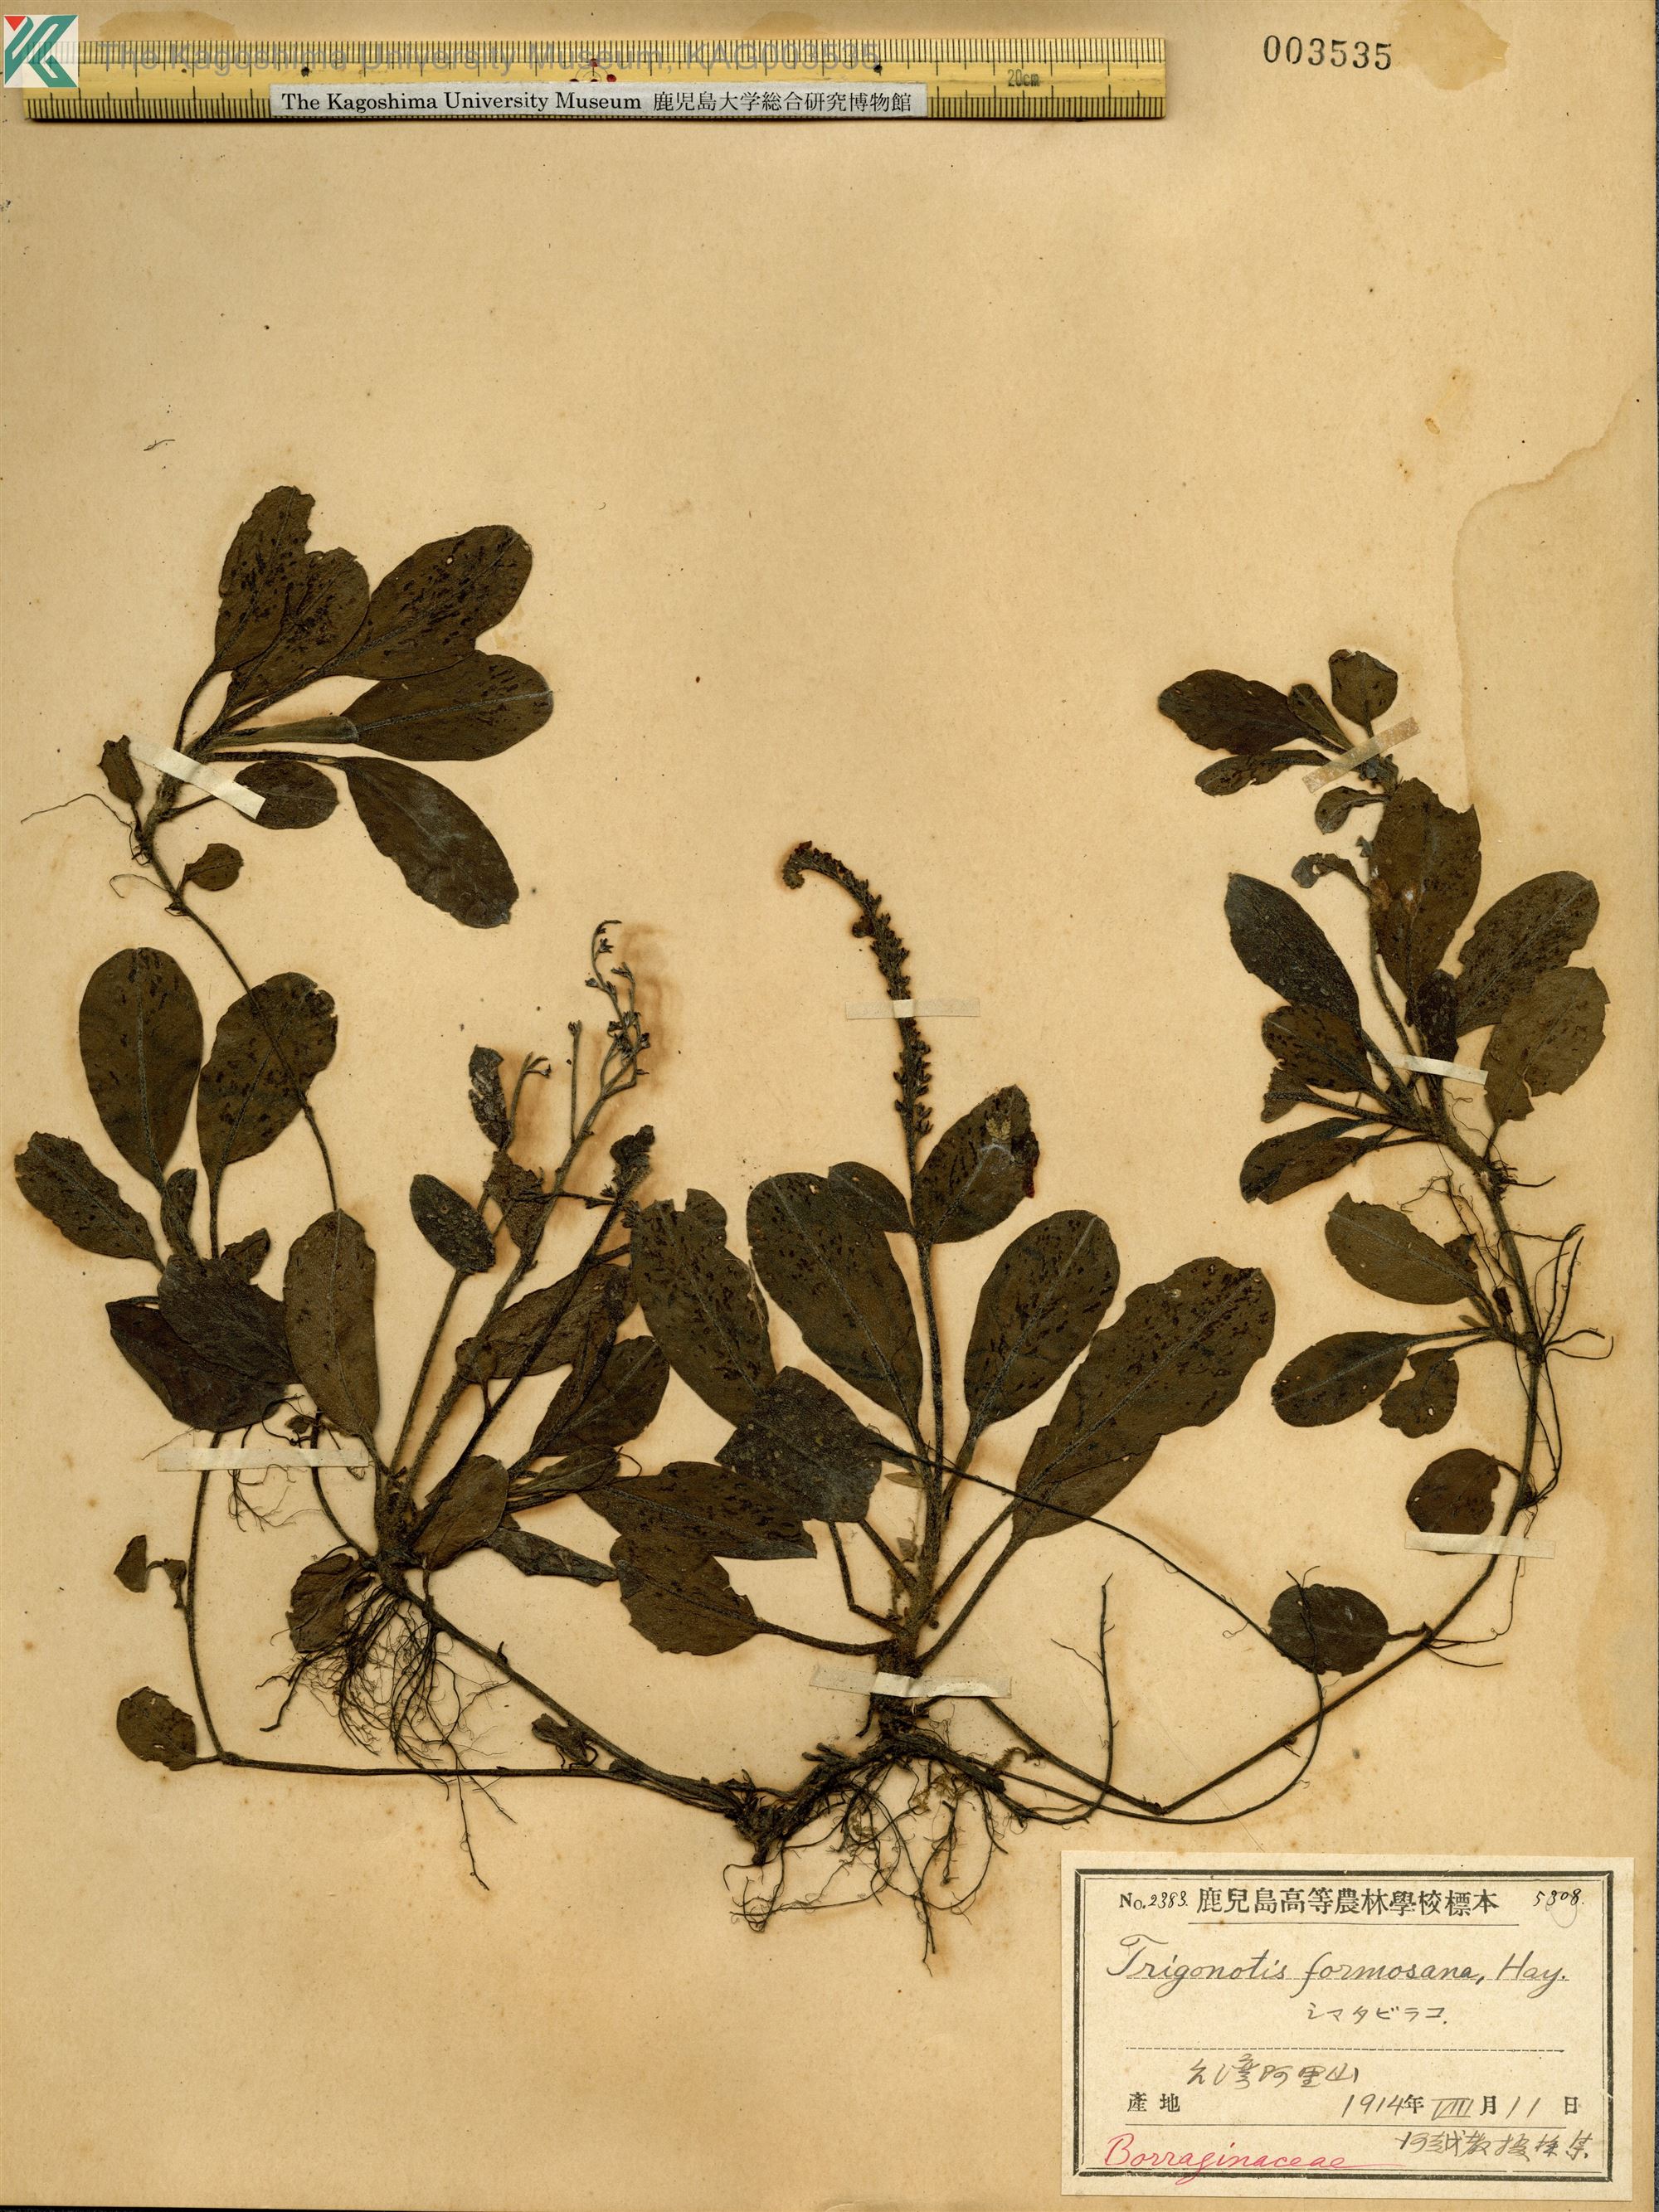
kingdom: Plantae
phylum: Tracheophyta
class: Magnoliopsida
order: Boraginales
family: Boraginaceae
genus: Trigonotis
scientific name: Trigonotis formosana
